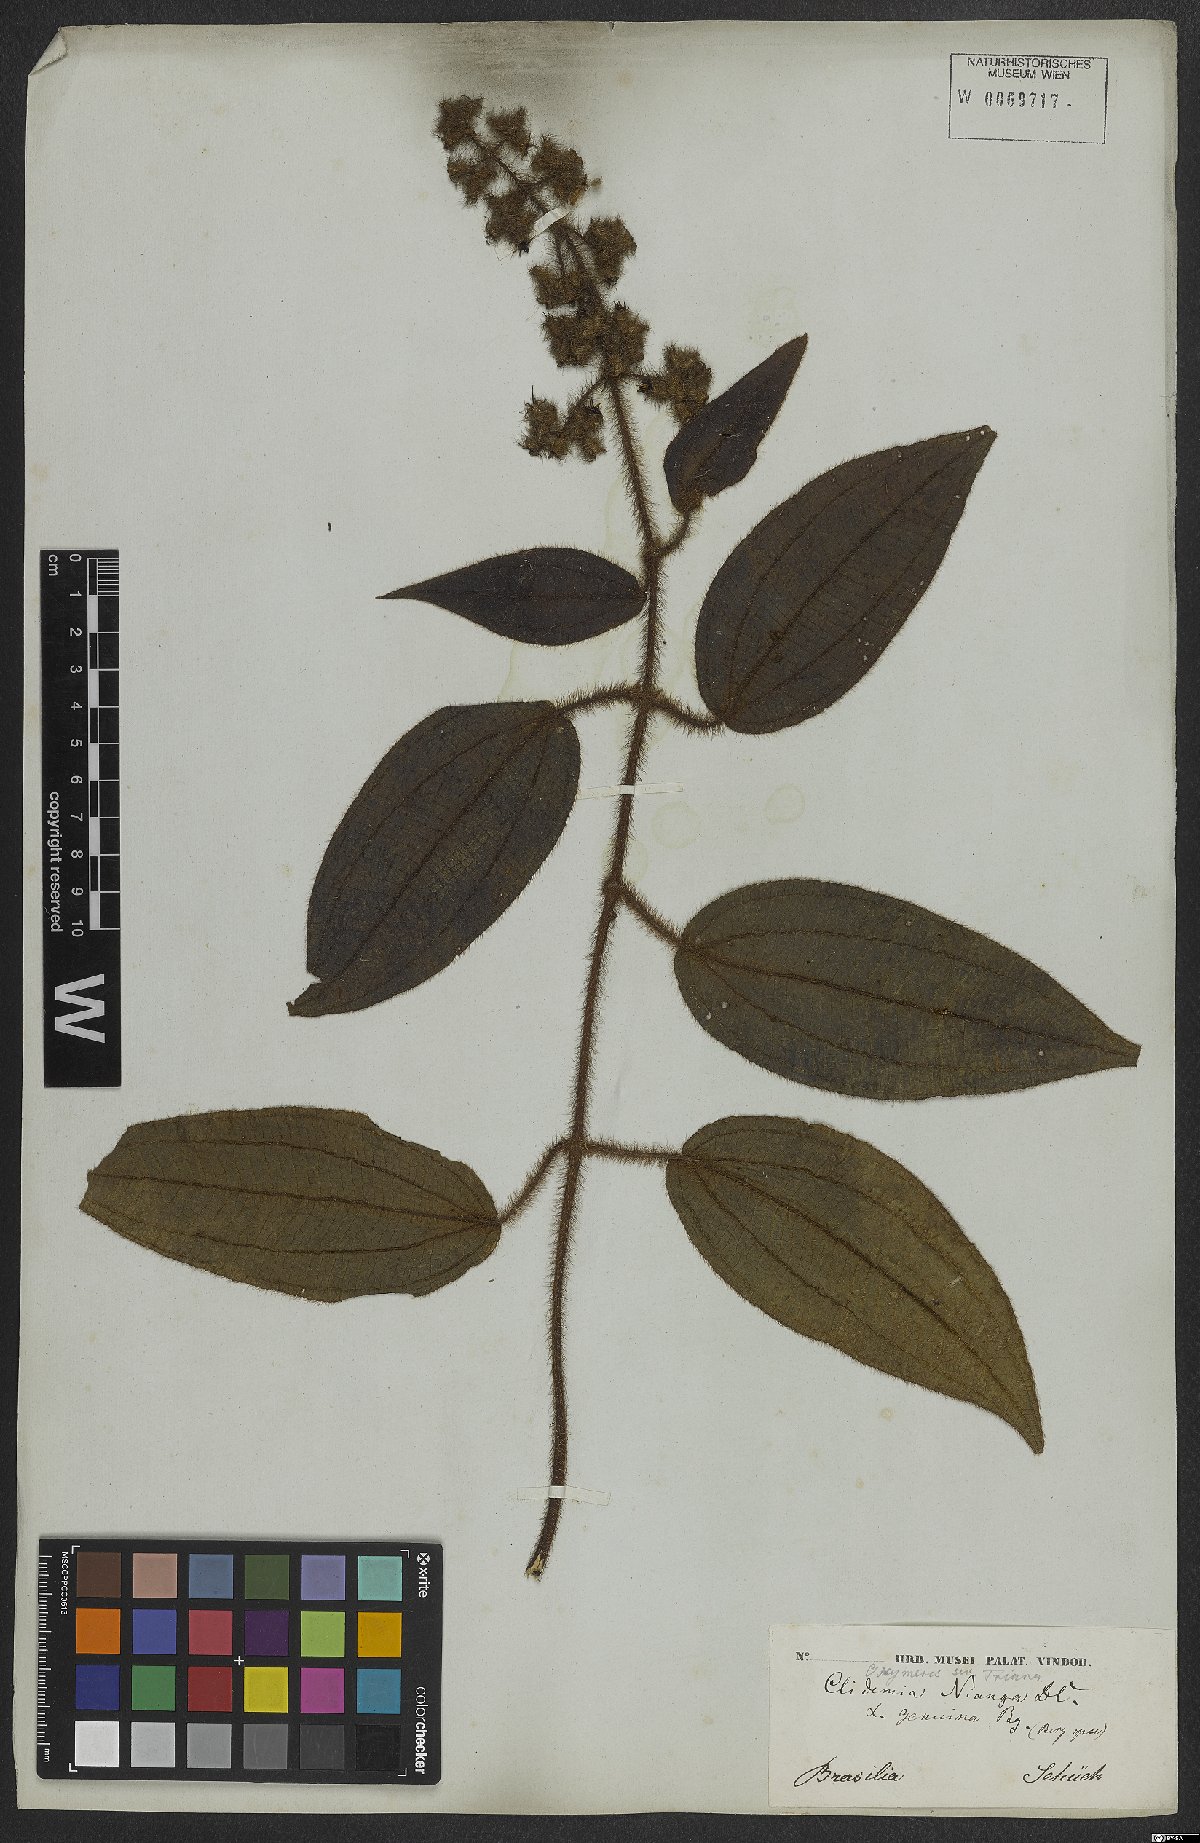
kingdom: Plantae
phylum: Tracheophyta
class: Magnoliopsida
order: Myrtales
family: Melastomataceae
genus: Miconia
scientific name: Miconia nianga
